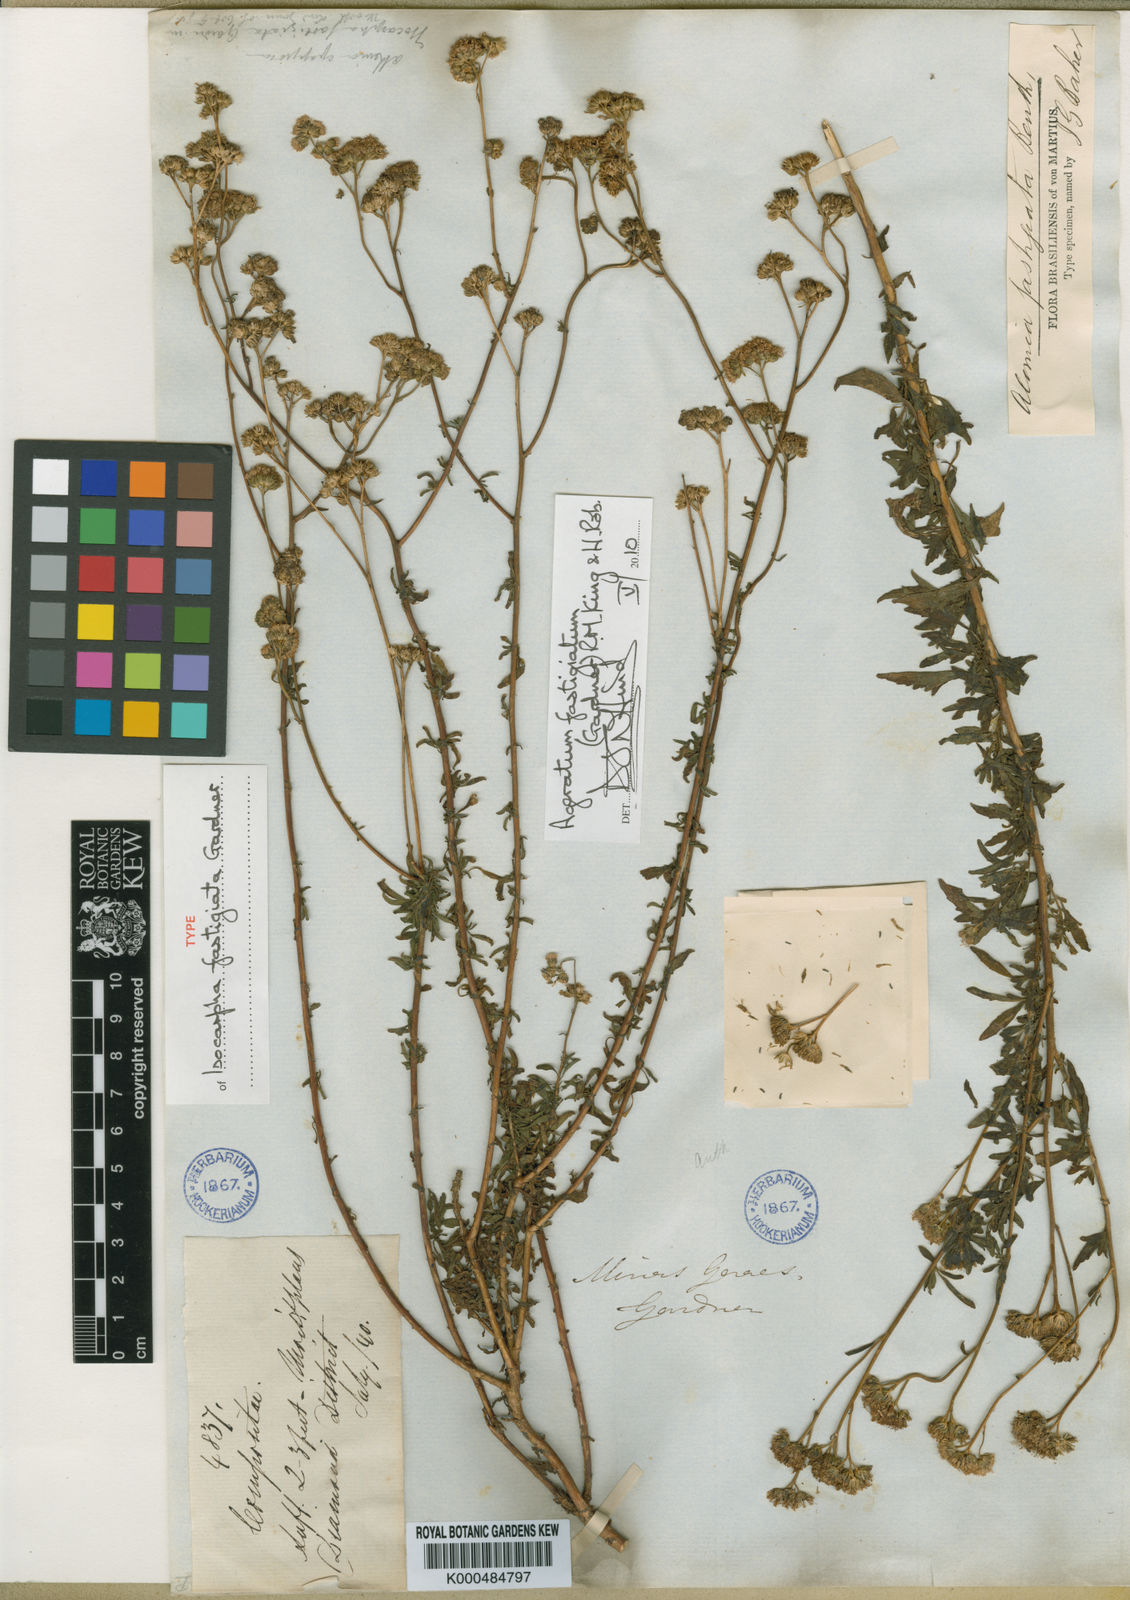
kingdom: Plantae
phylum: Tracheophyta
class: Magnoliopsida
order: Asterales
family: Asteraceae
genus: Ageratum
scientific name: Ageratum fastigiatum
